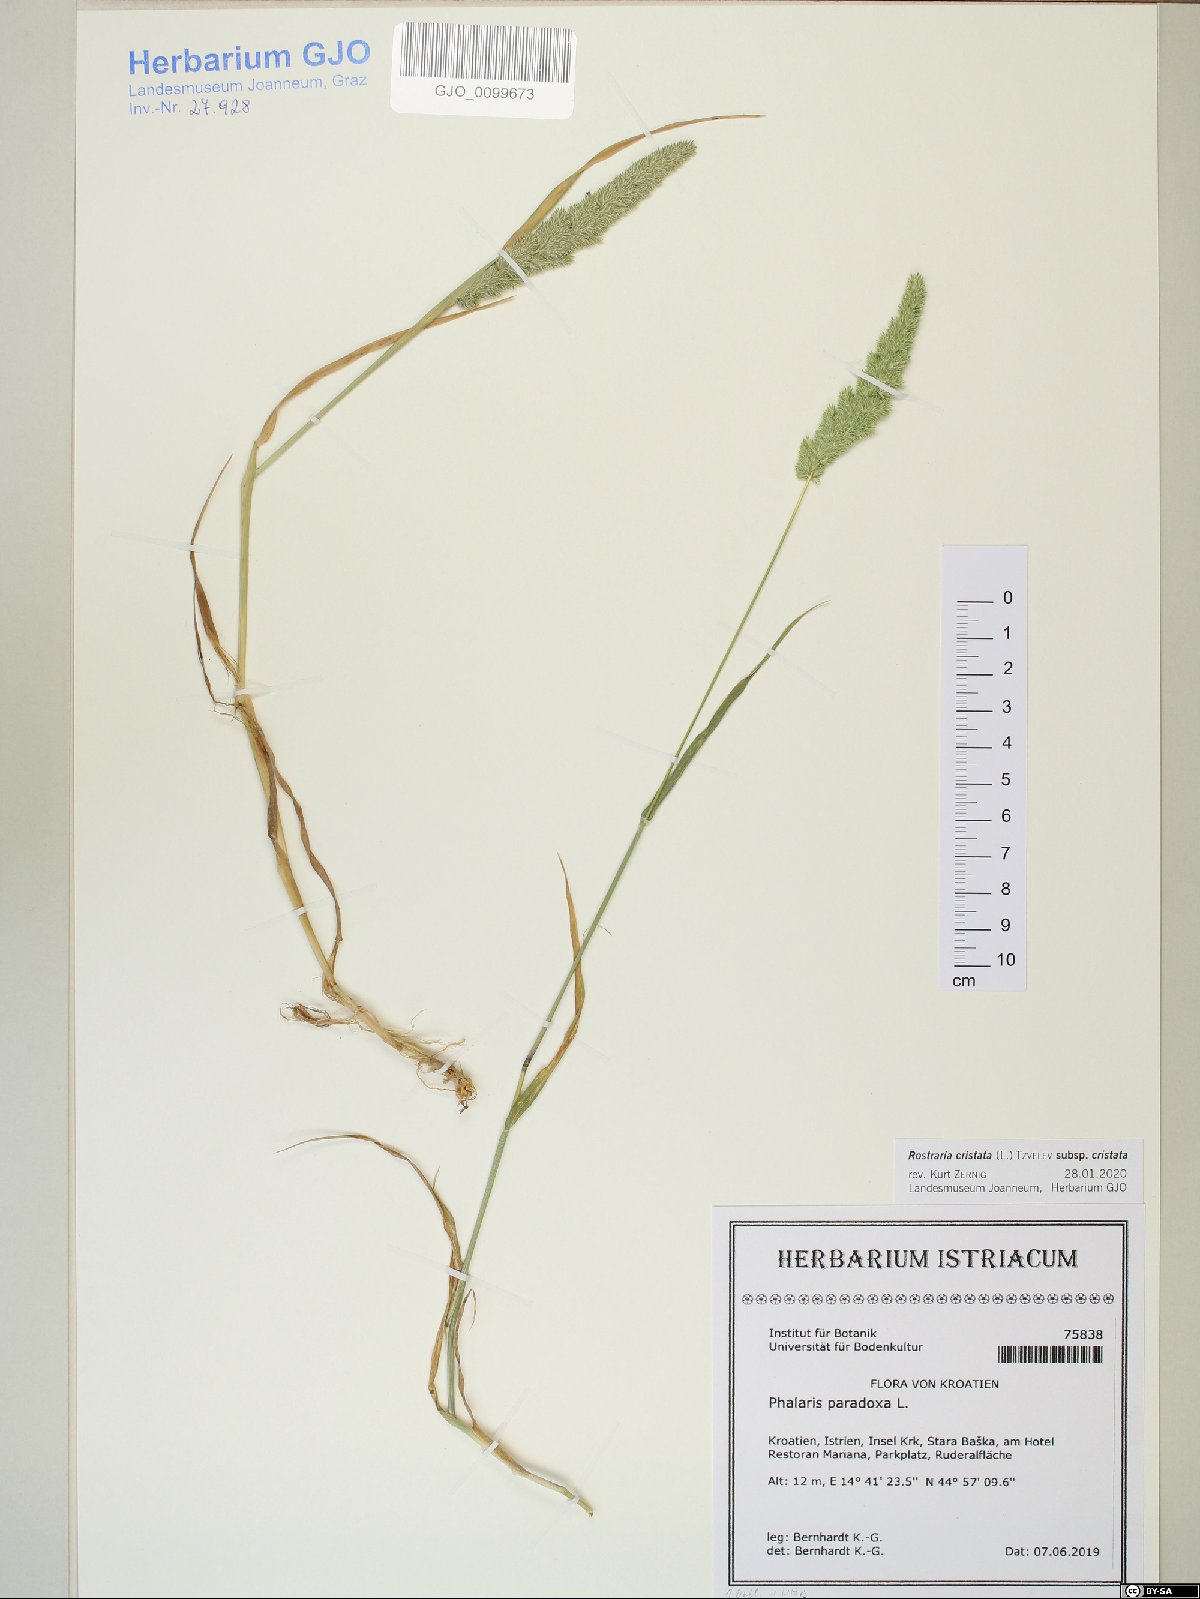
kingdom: Plantae
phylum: Tracheophyta
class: Liliopsida
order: Poales
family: Poaceae
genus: Rostraria
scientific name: Rostraria cristata
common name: Mediterranean hair-grass
